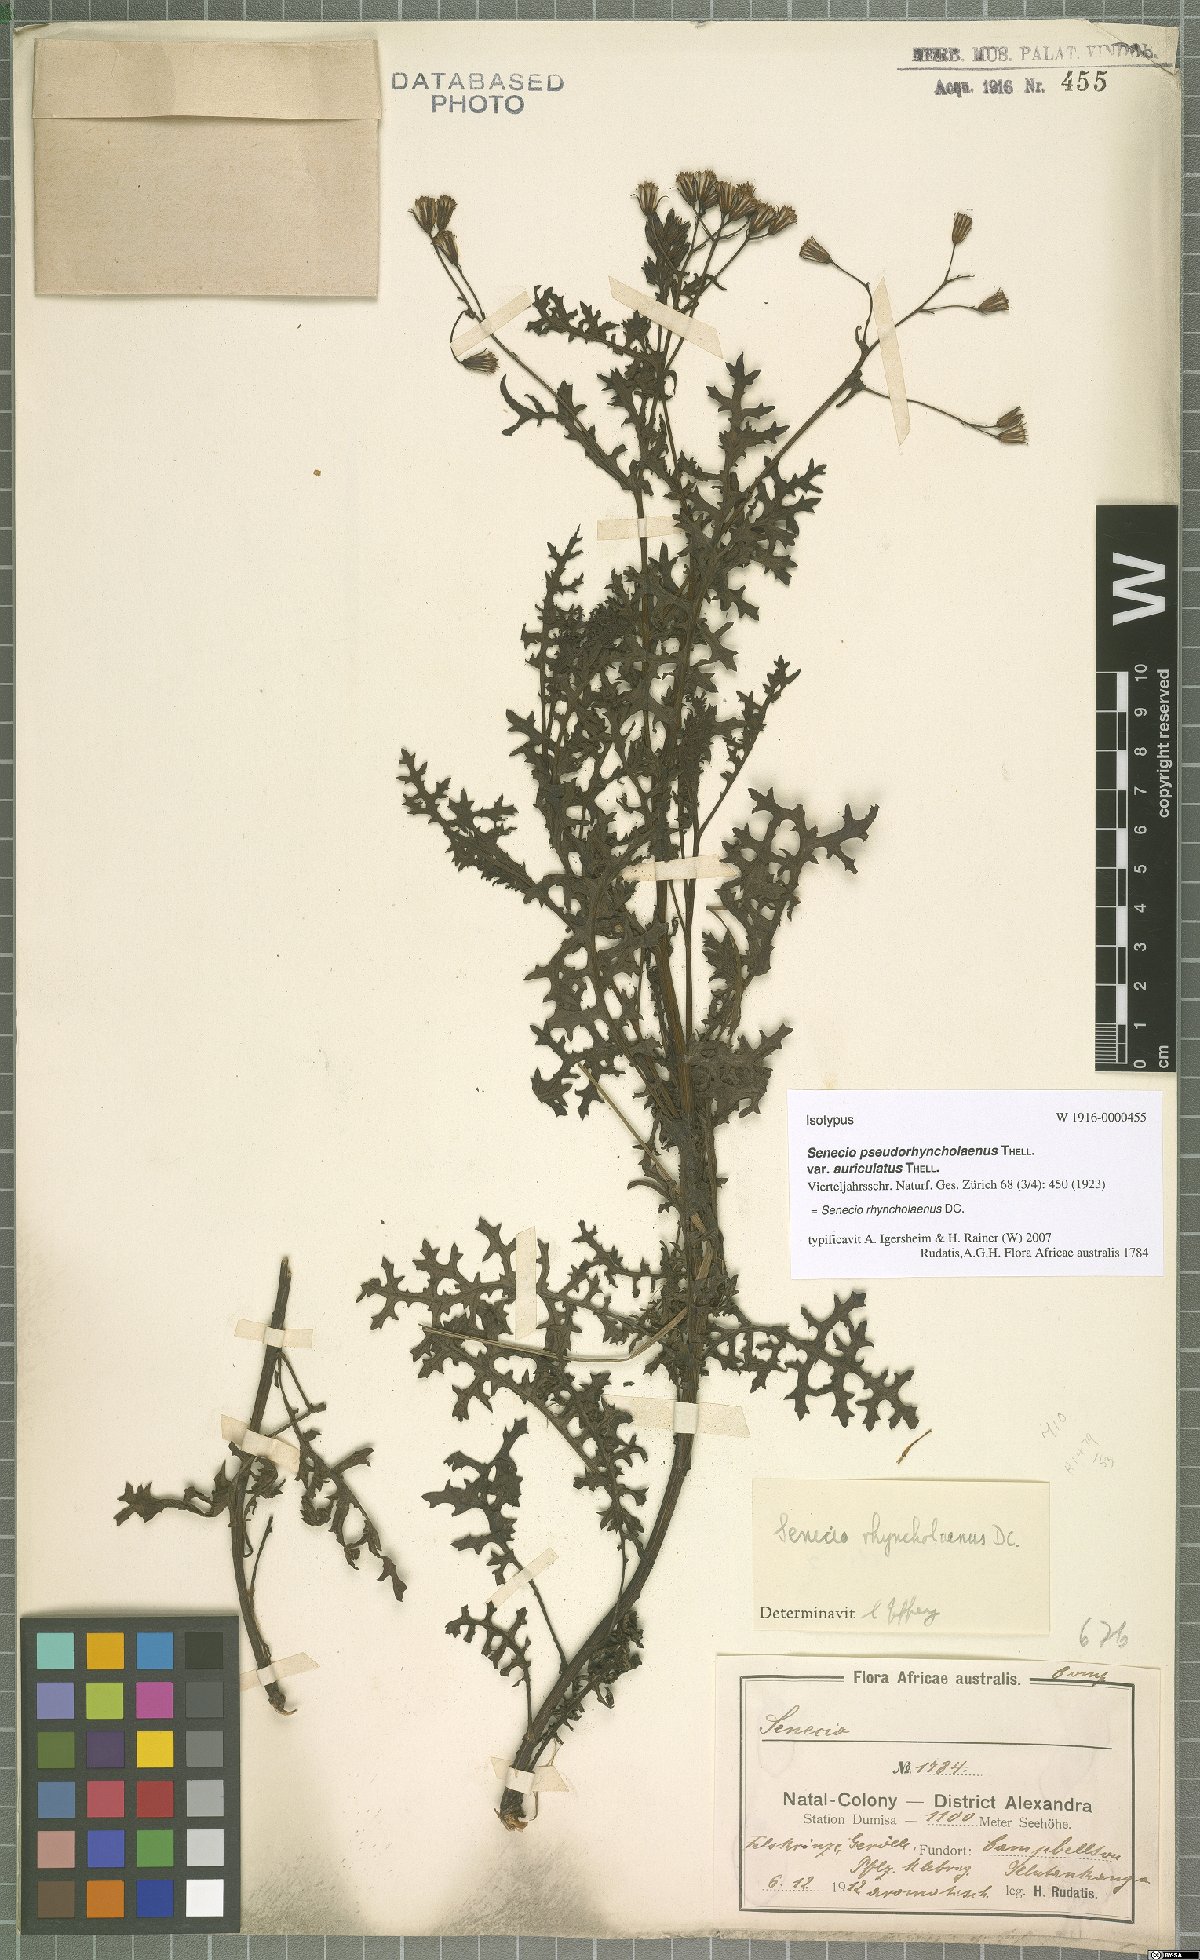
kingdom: Plantae
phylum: Tracheophyta
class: Magnoliopsida
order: Asterales
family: Asteraceae
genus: Senecio
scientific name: Senecio rhyncholaenus
